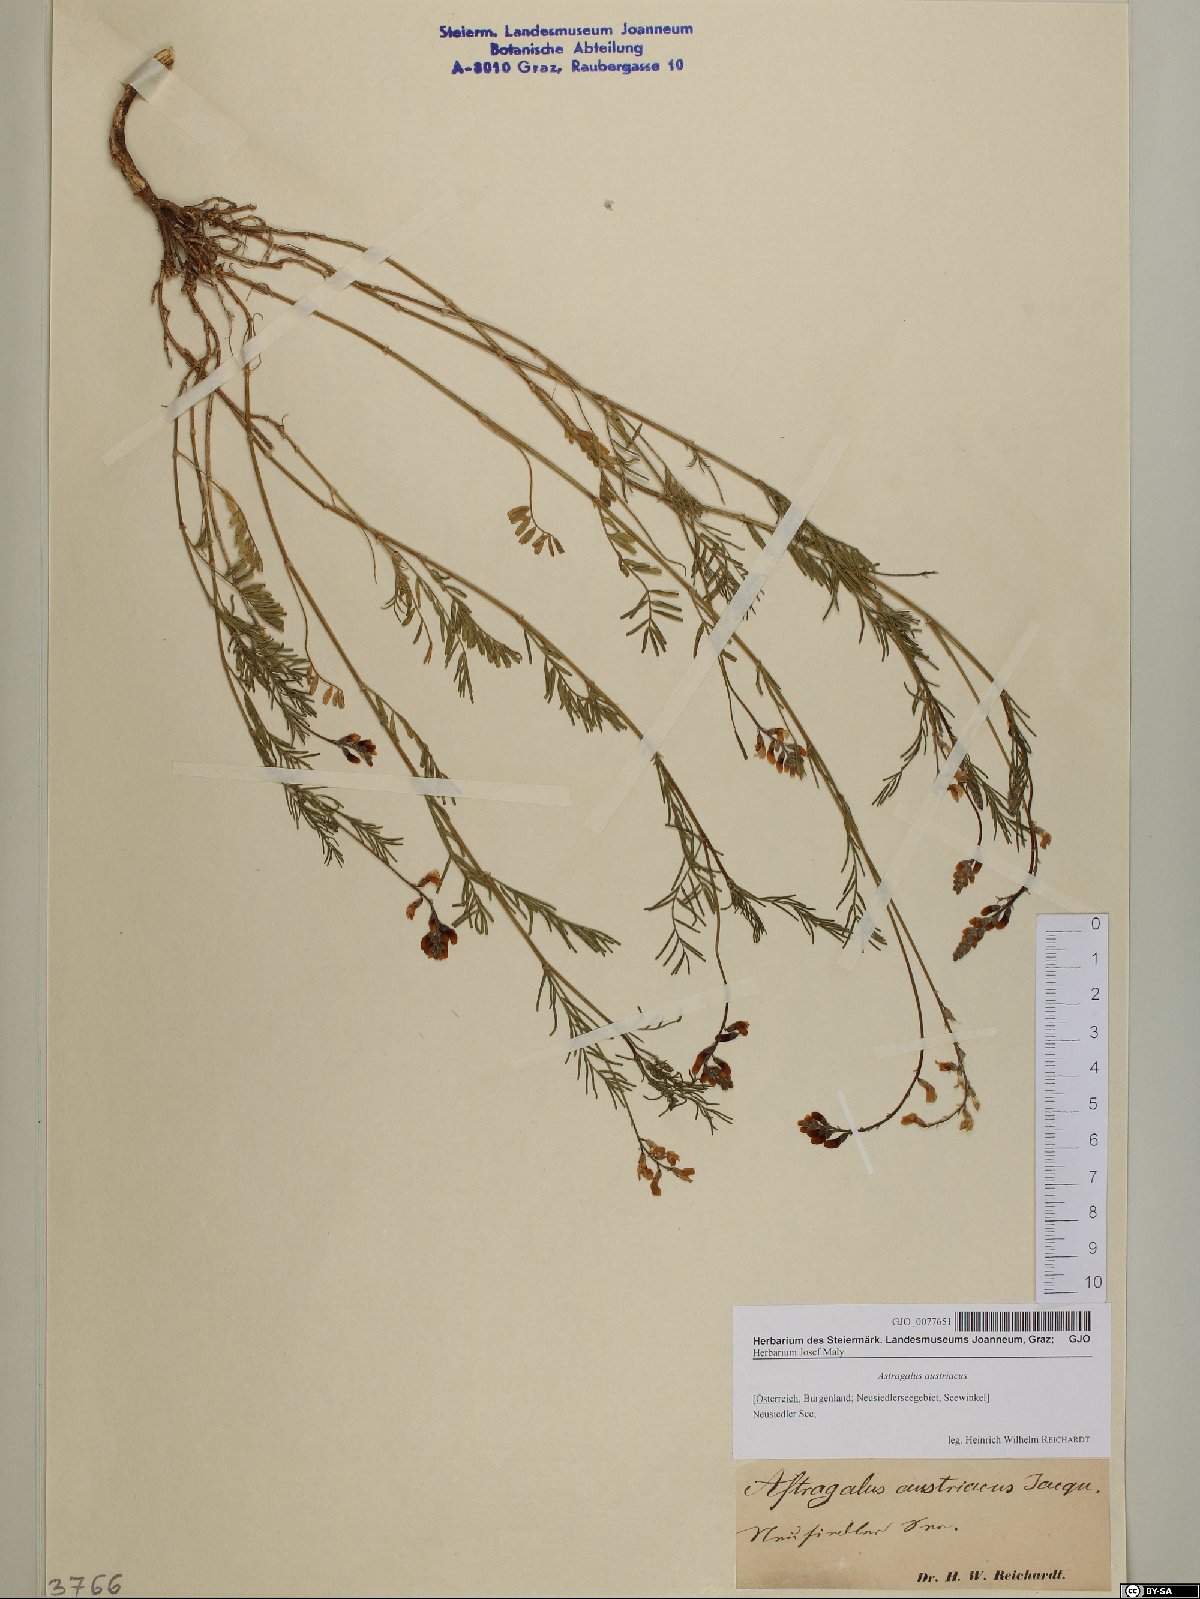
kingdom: Plantae
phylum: Tracheophyta
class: Magnoliopsida
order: Fabales
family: Fabaceae
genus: Astragalus
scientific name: Astragalus austriacus
